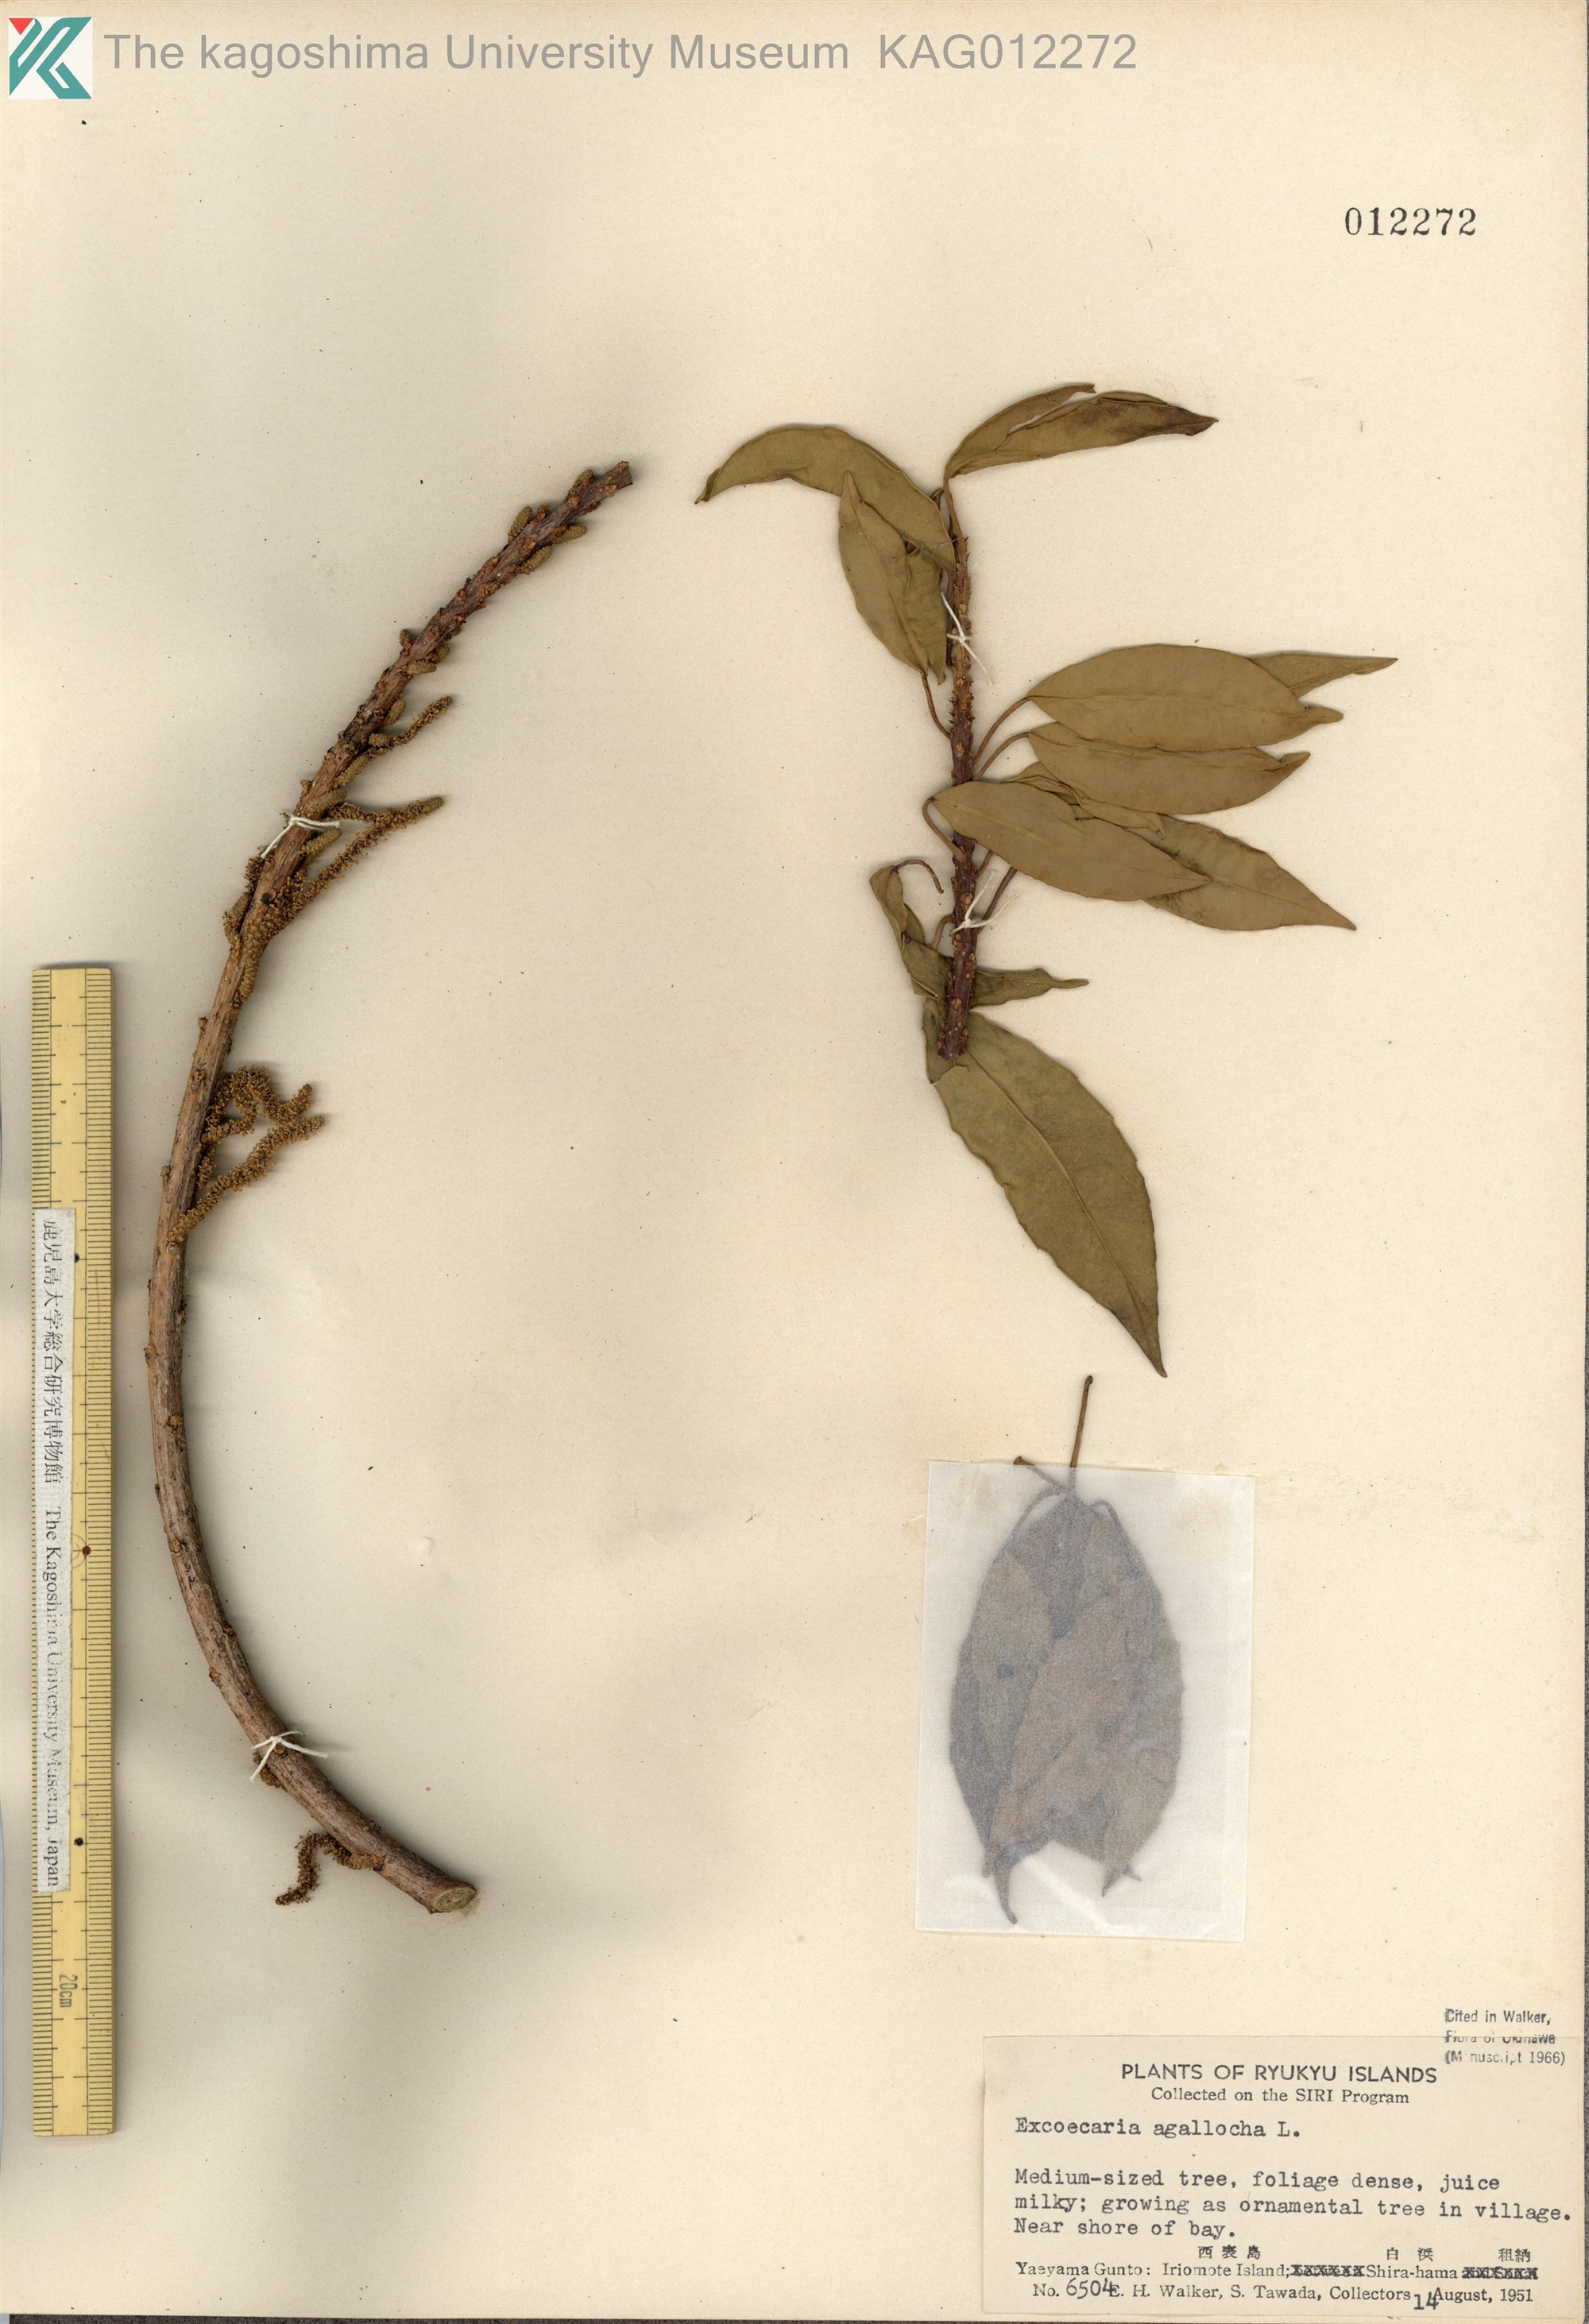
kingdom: Plantae
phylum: Tracheophyta
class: Magnoliopsida
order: Malpighiales
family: Euphorbiaceae
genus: Excoecaria
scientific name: Excoecaria agallocha
